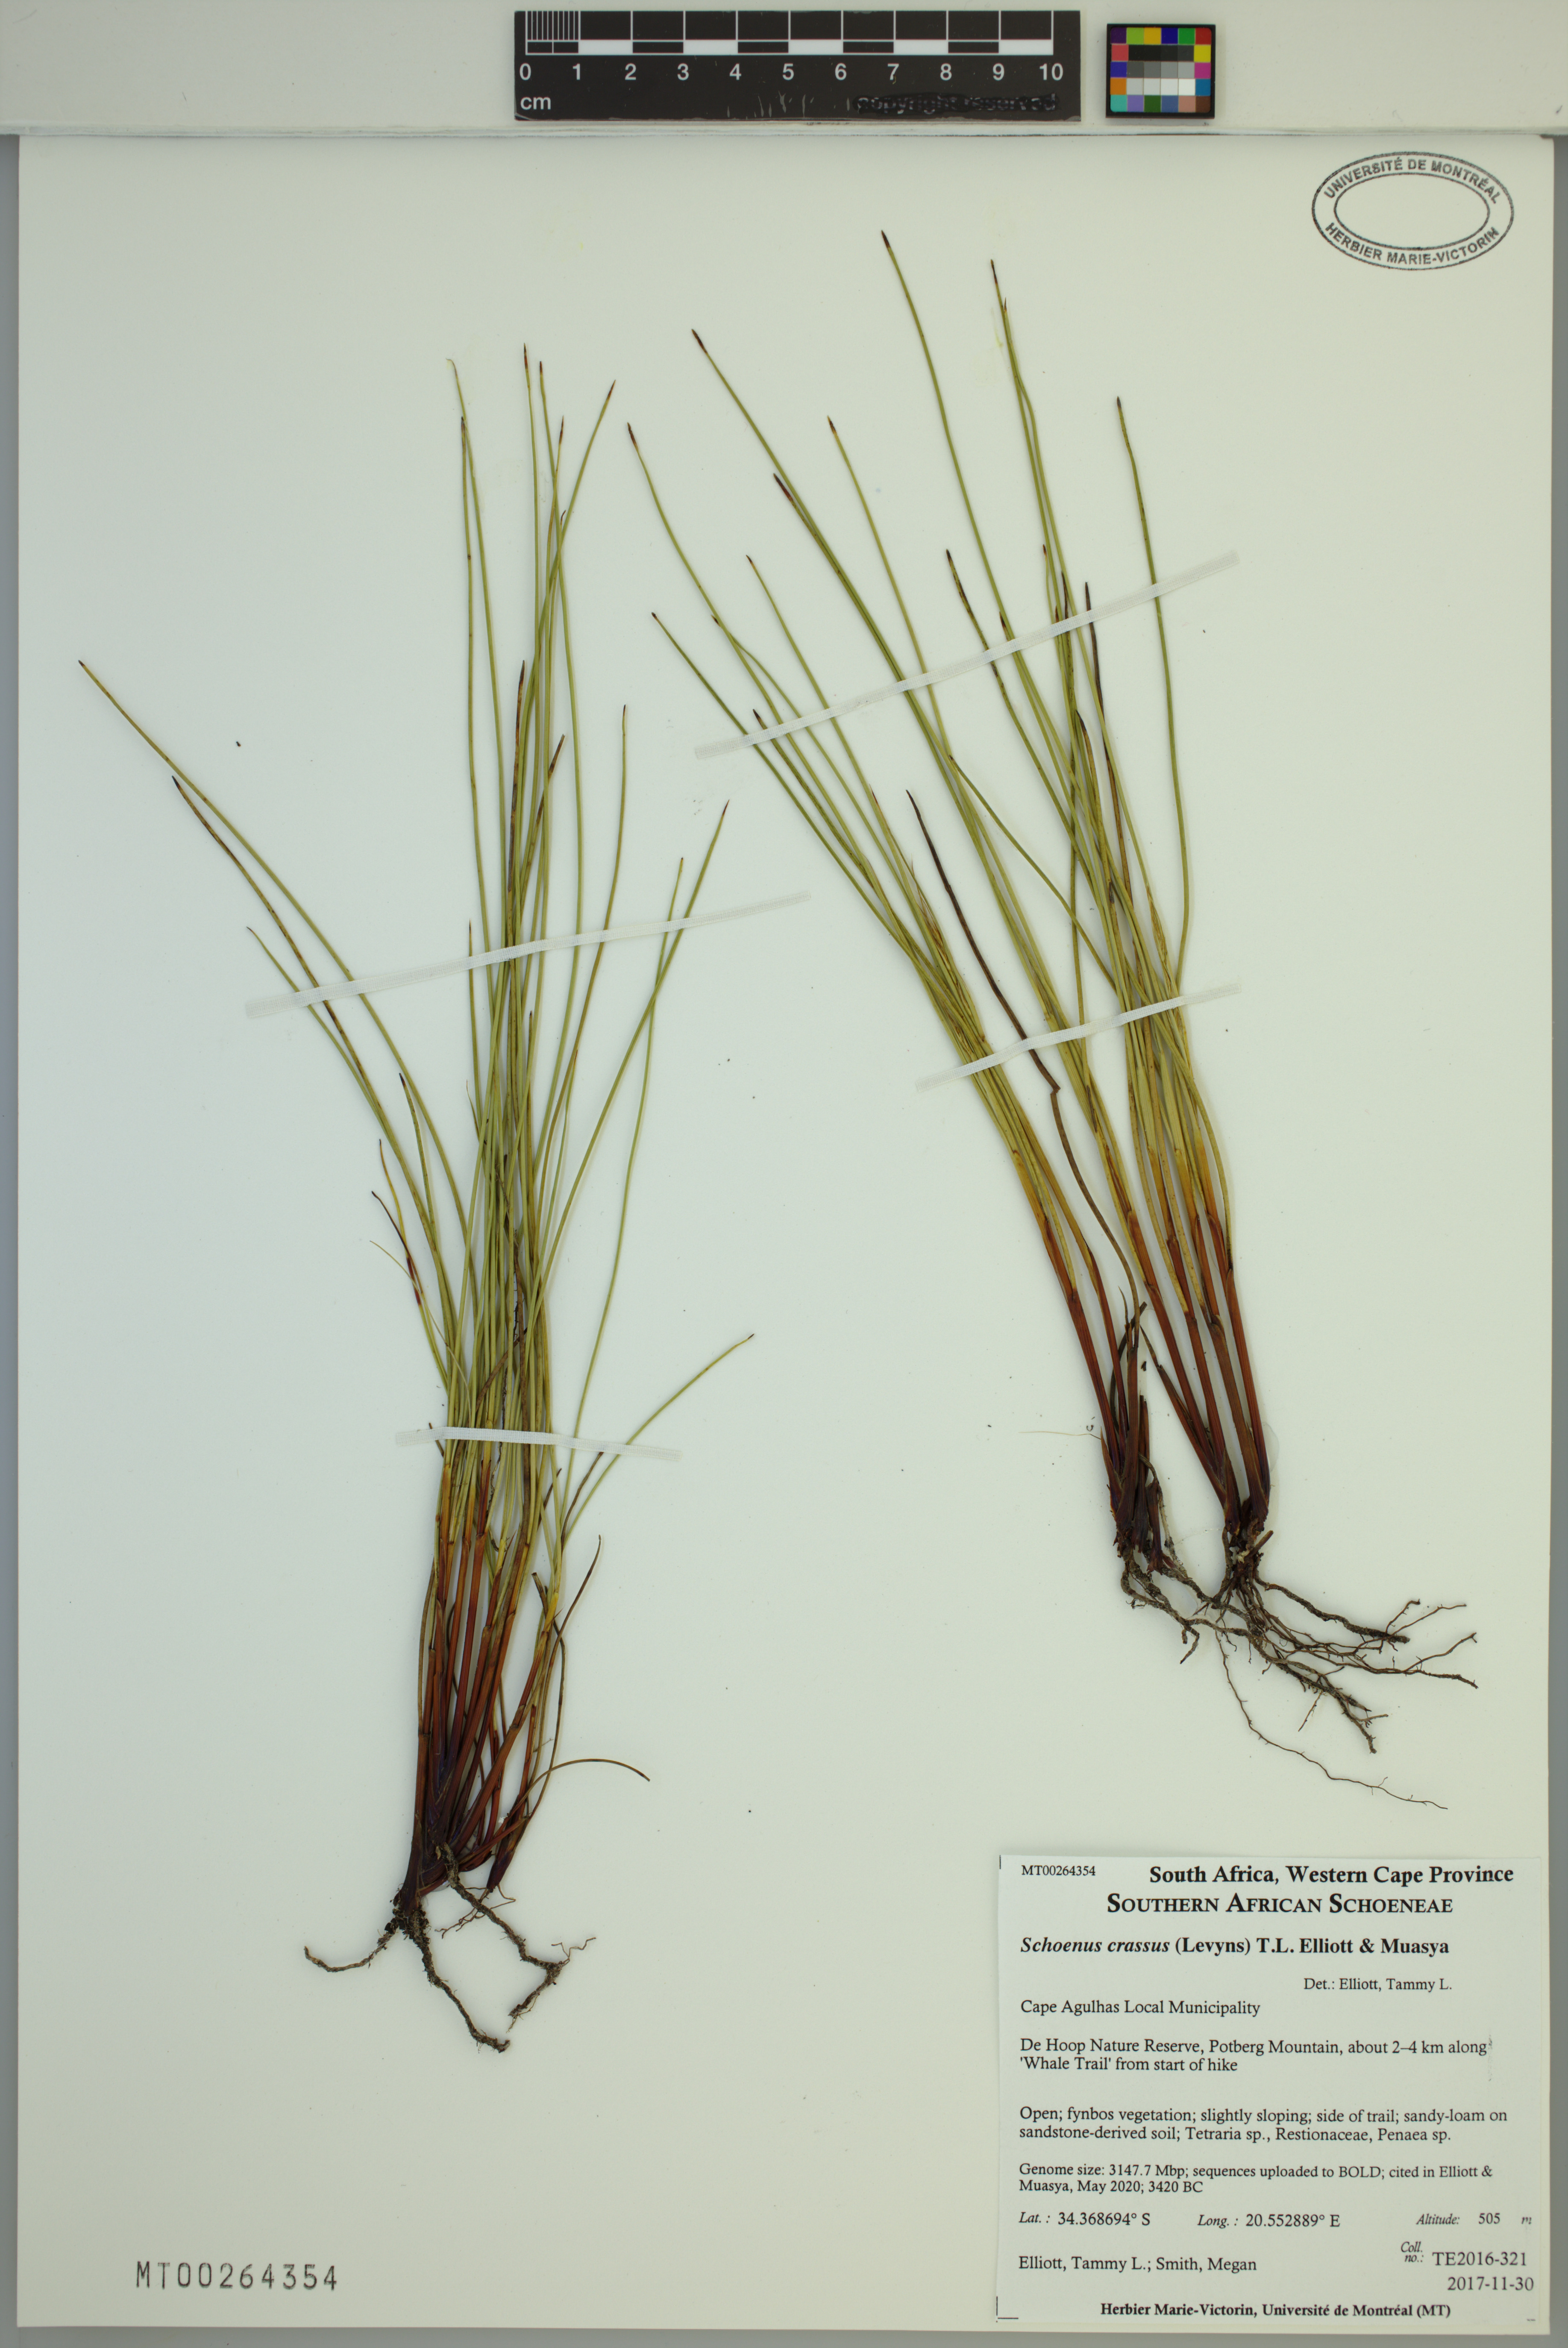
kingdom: Plantae
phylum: Tracheophyta
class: Liliopsida
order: Poales
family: Cyperaceae
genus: Schoenus
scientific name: Schoenus crassus
